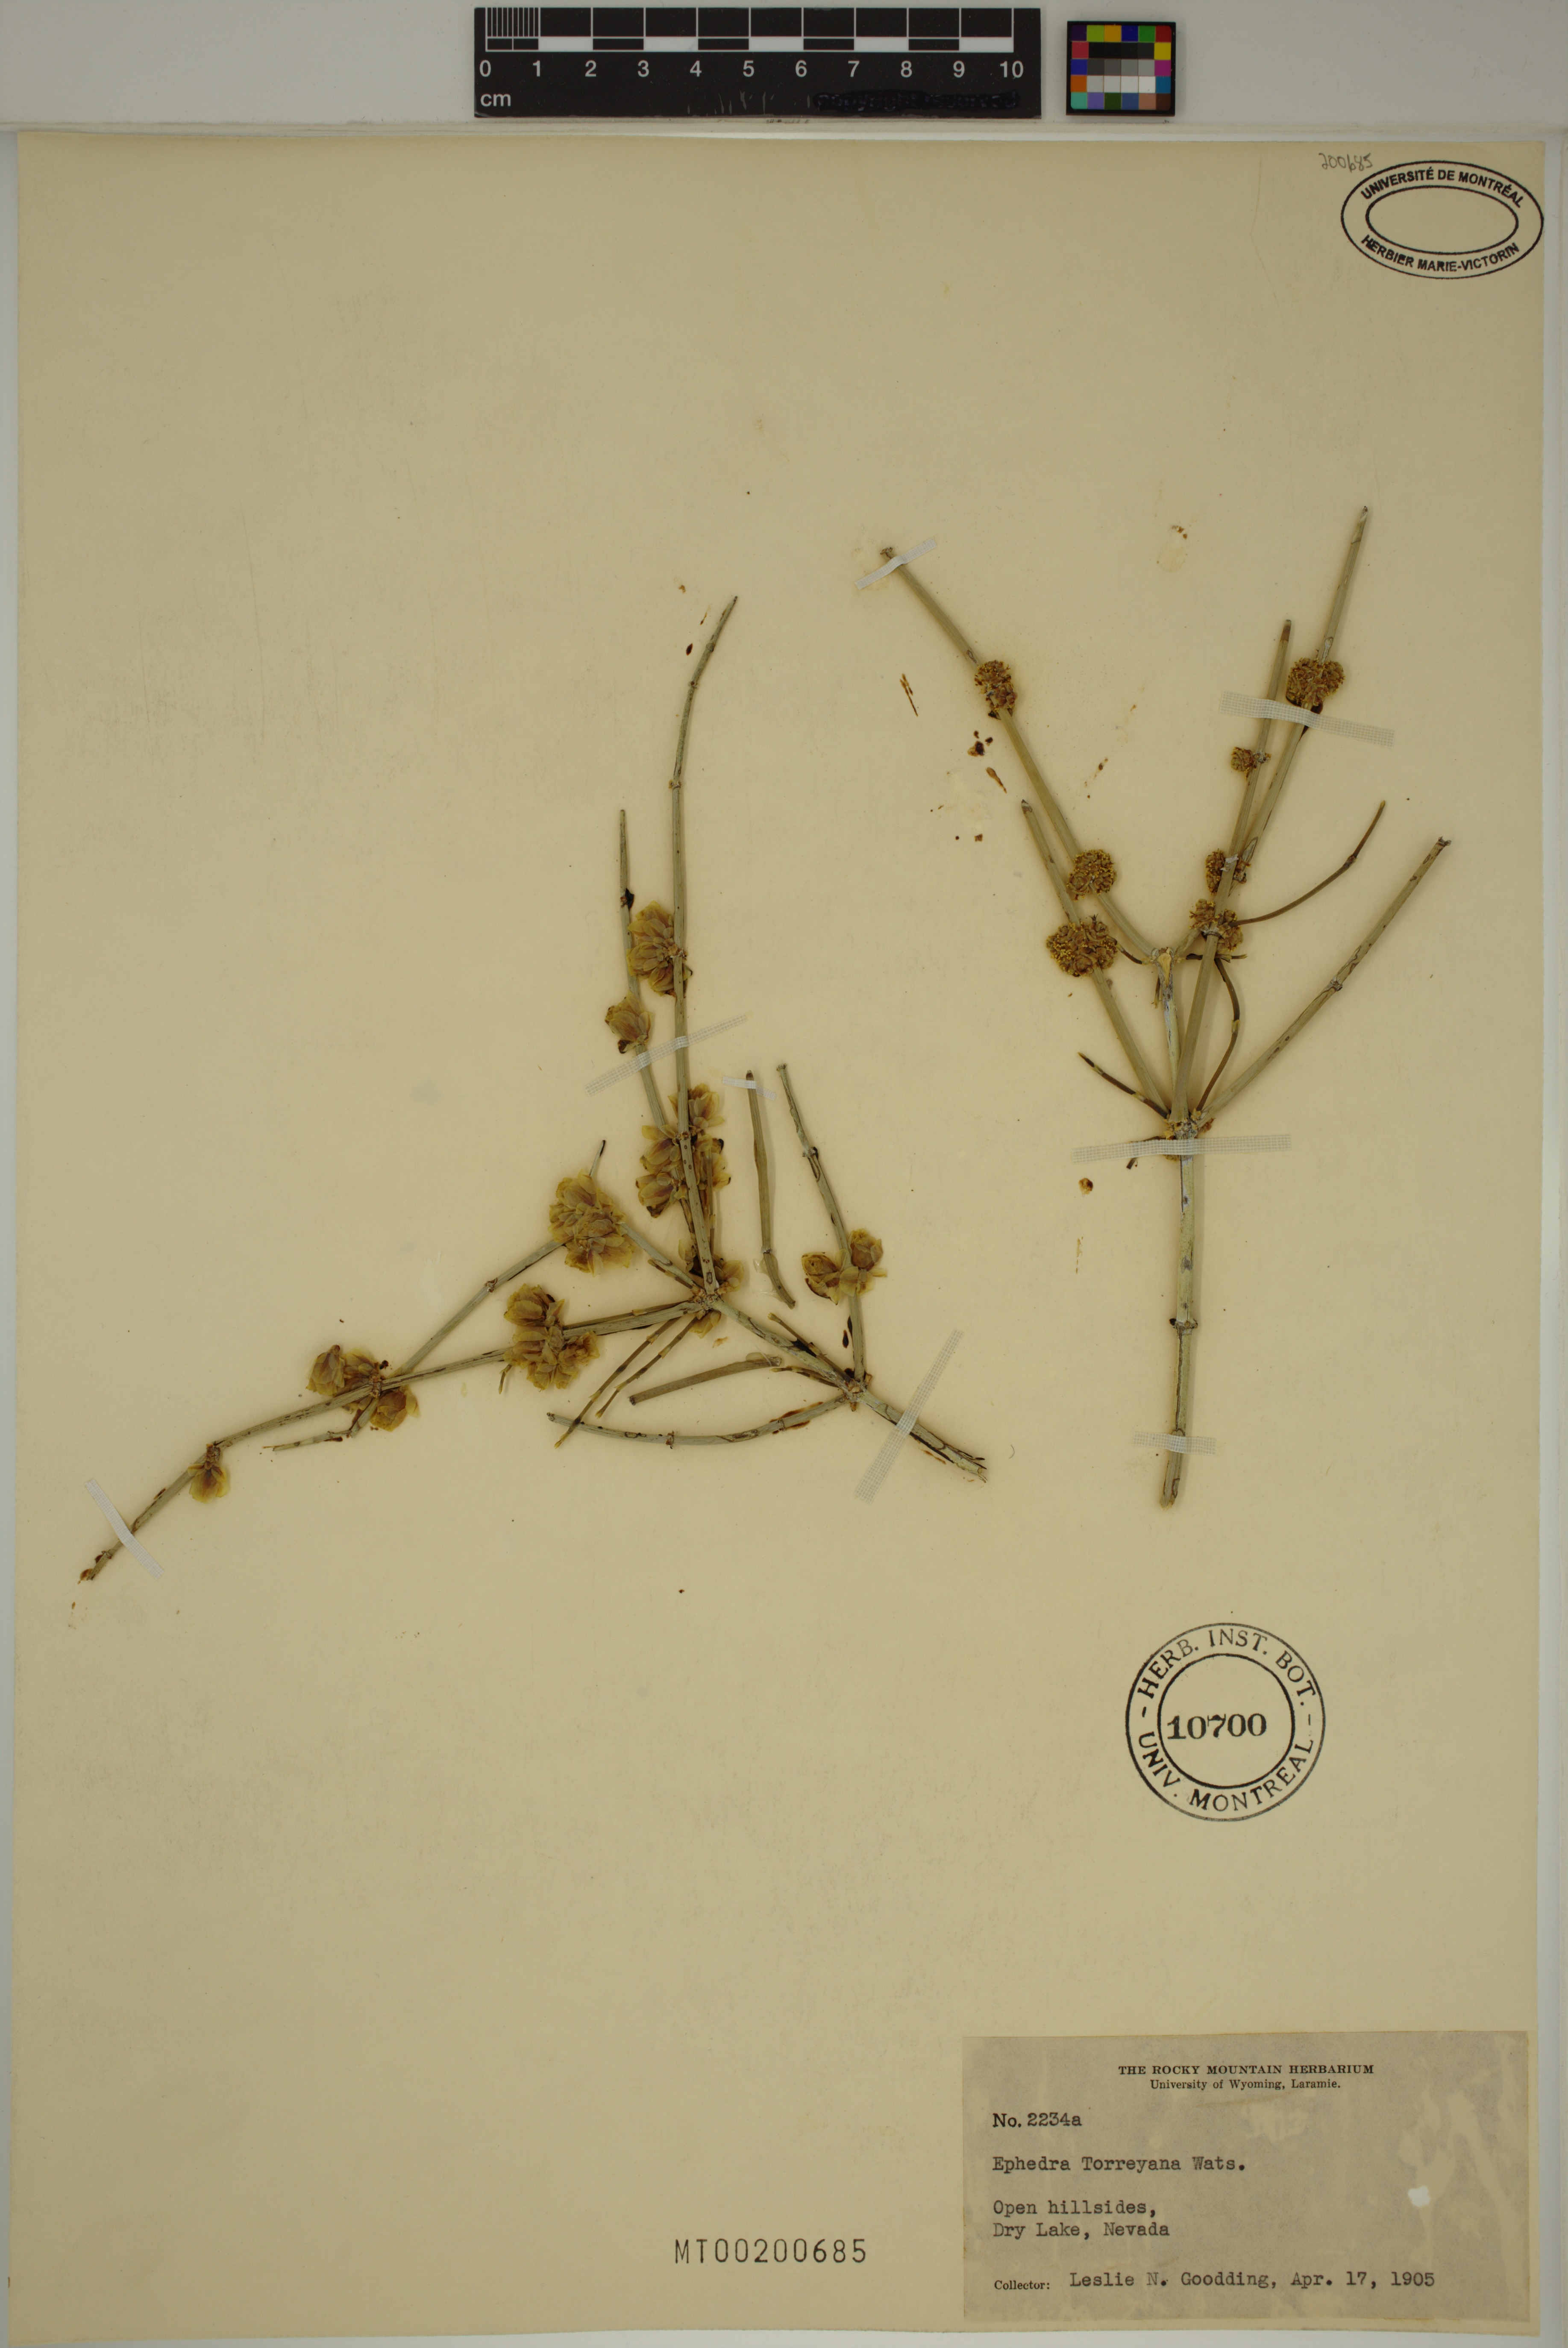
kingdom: Plantae
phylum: Tracheophyta
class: Gnetopsida
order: Ephedrales
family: Ephedraceae
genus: Ephedra
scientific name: Ephedra torreyana
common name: Torrey ephedra
